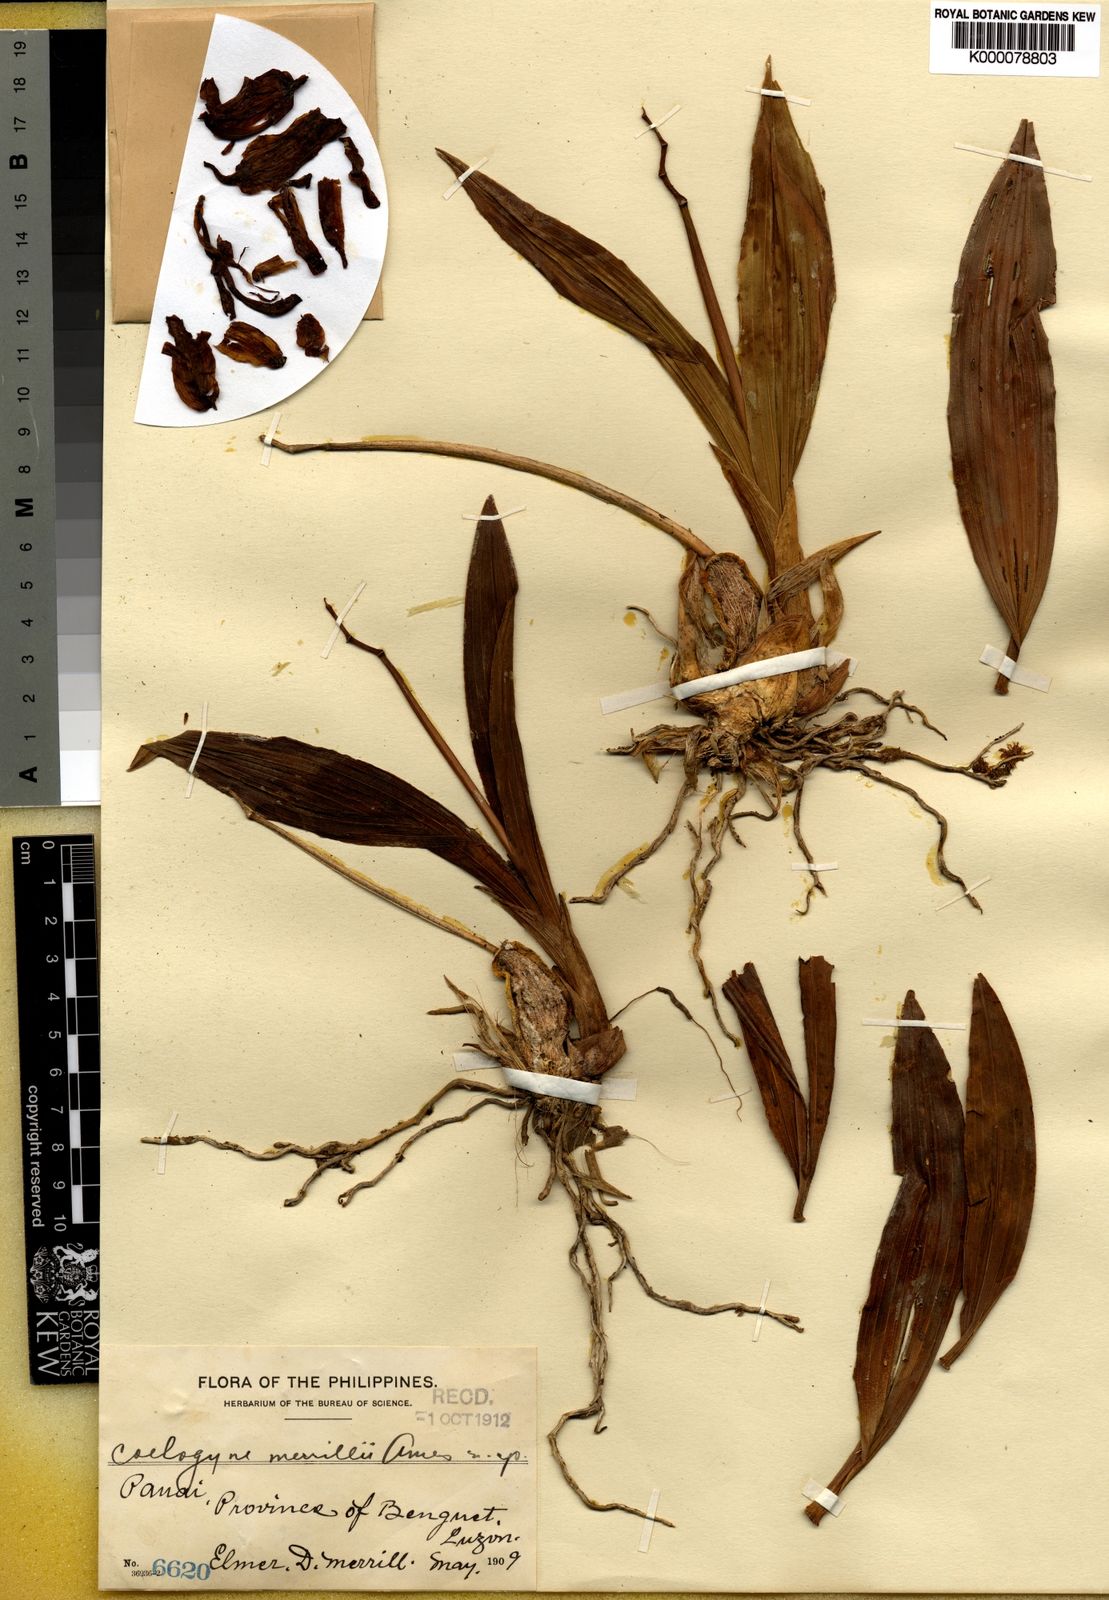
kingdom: Plantae
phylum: Tracheophyta
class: Liliopsida
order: Asparagales
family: Orchidaceae
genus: Coelogyne
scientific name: Coelogyne merrillii
